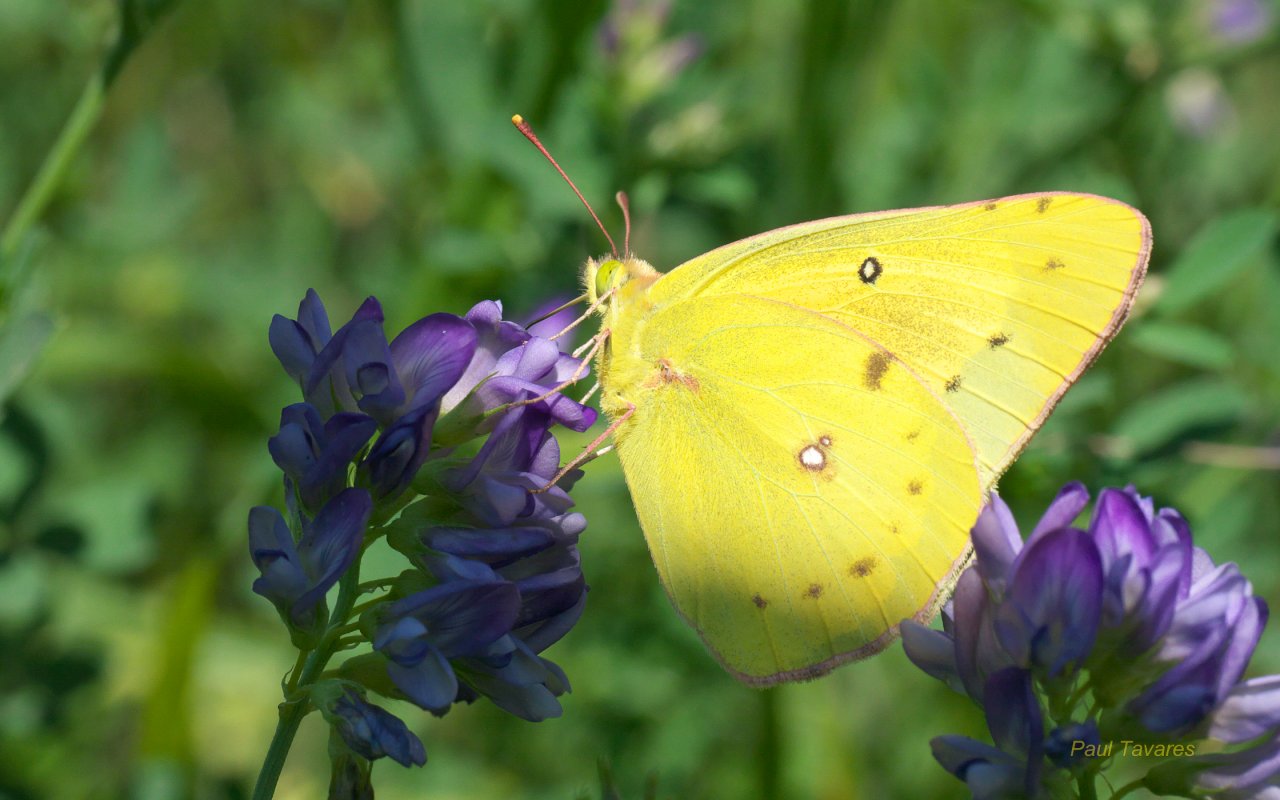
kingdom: Animalia
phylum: Arthropoda
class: Insecta
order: Lepidoptera
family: Pieridae
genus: Colias
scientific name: Colias eurytheme
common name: Orange Sulphur
